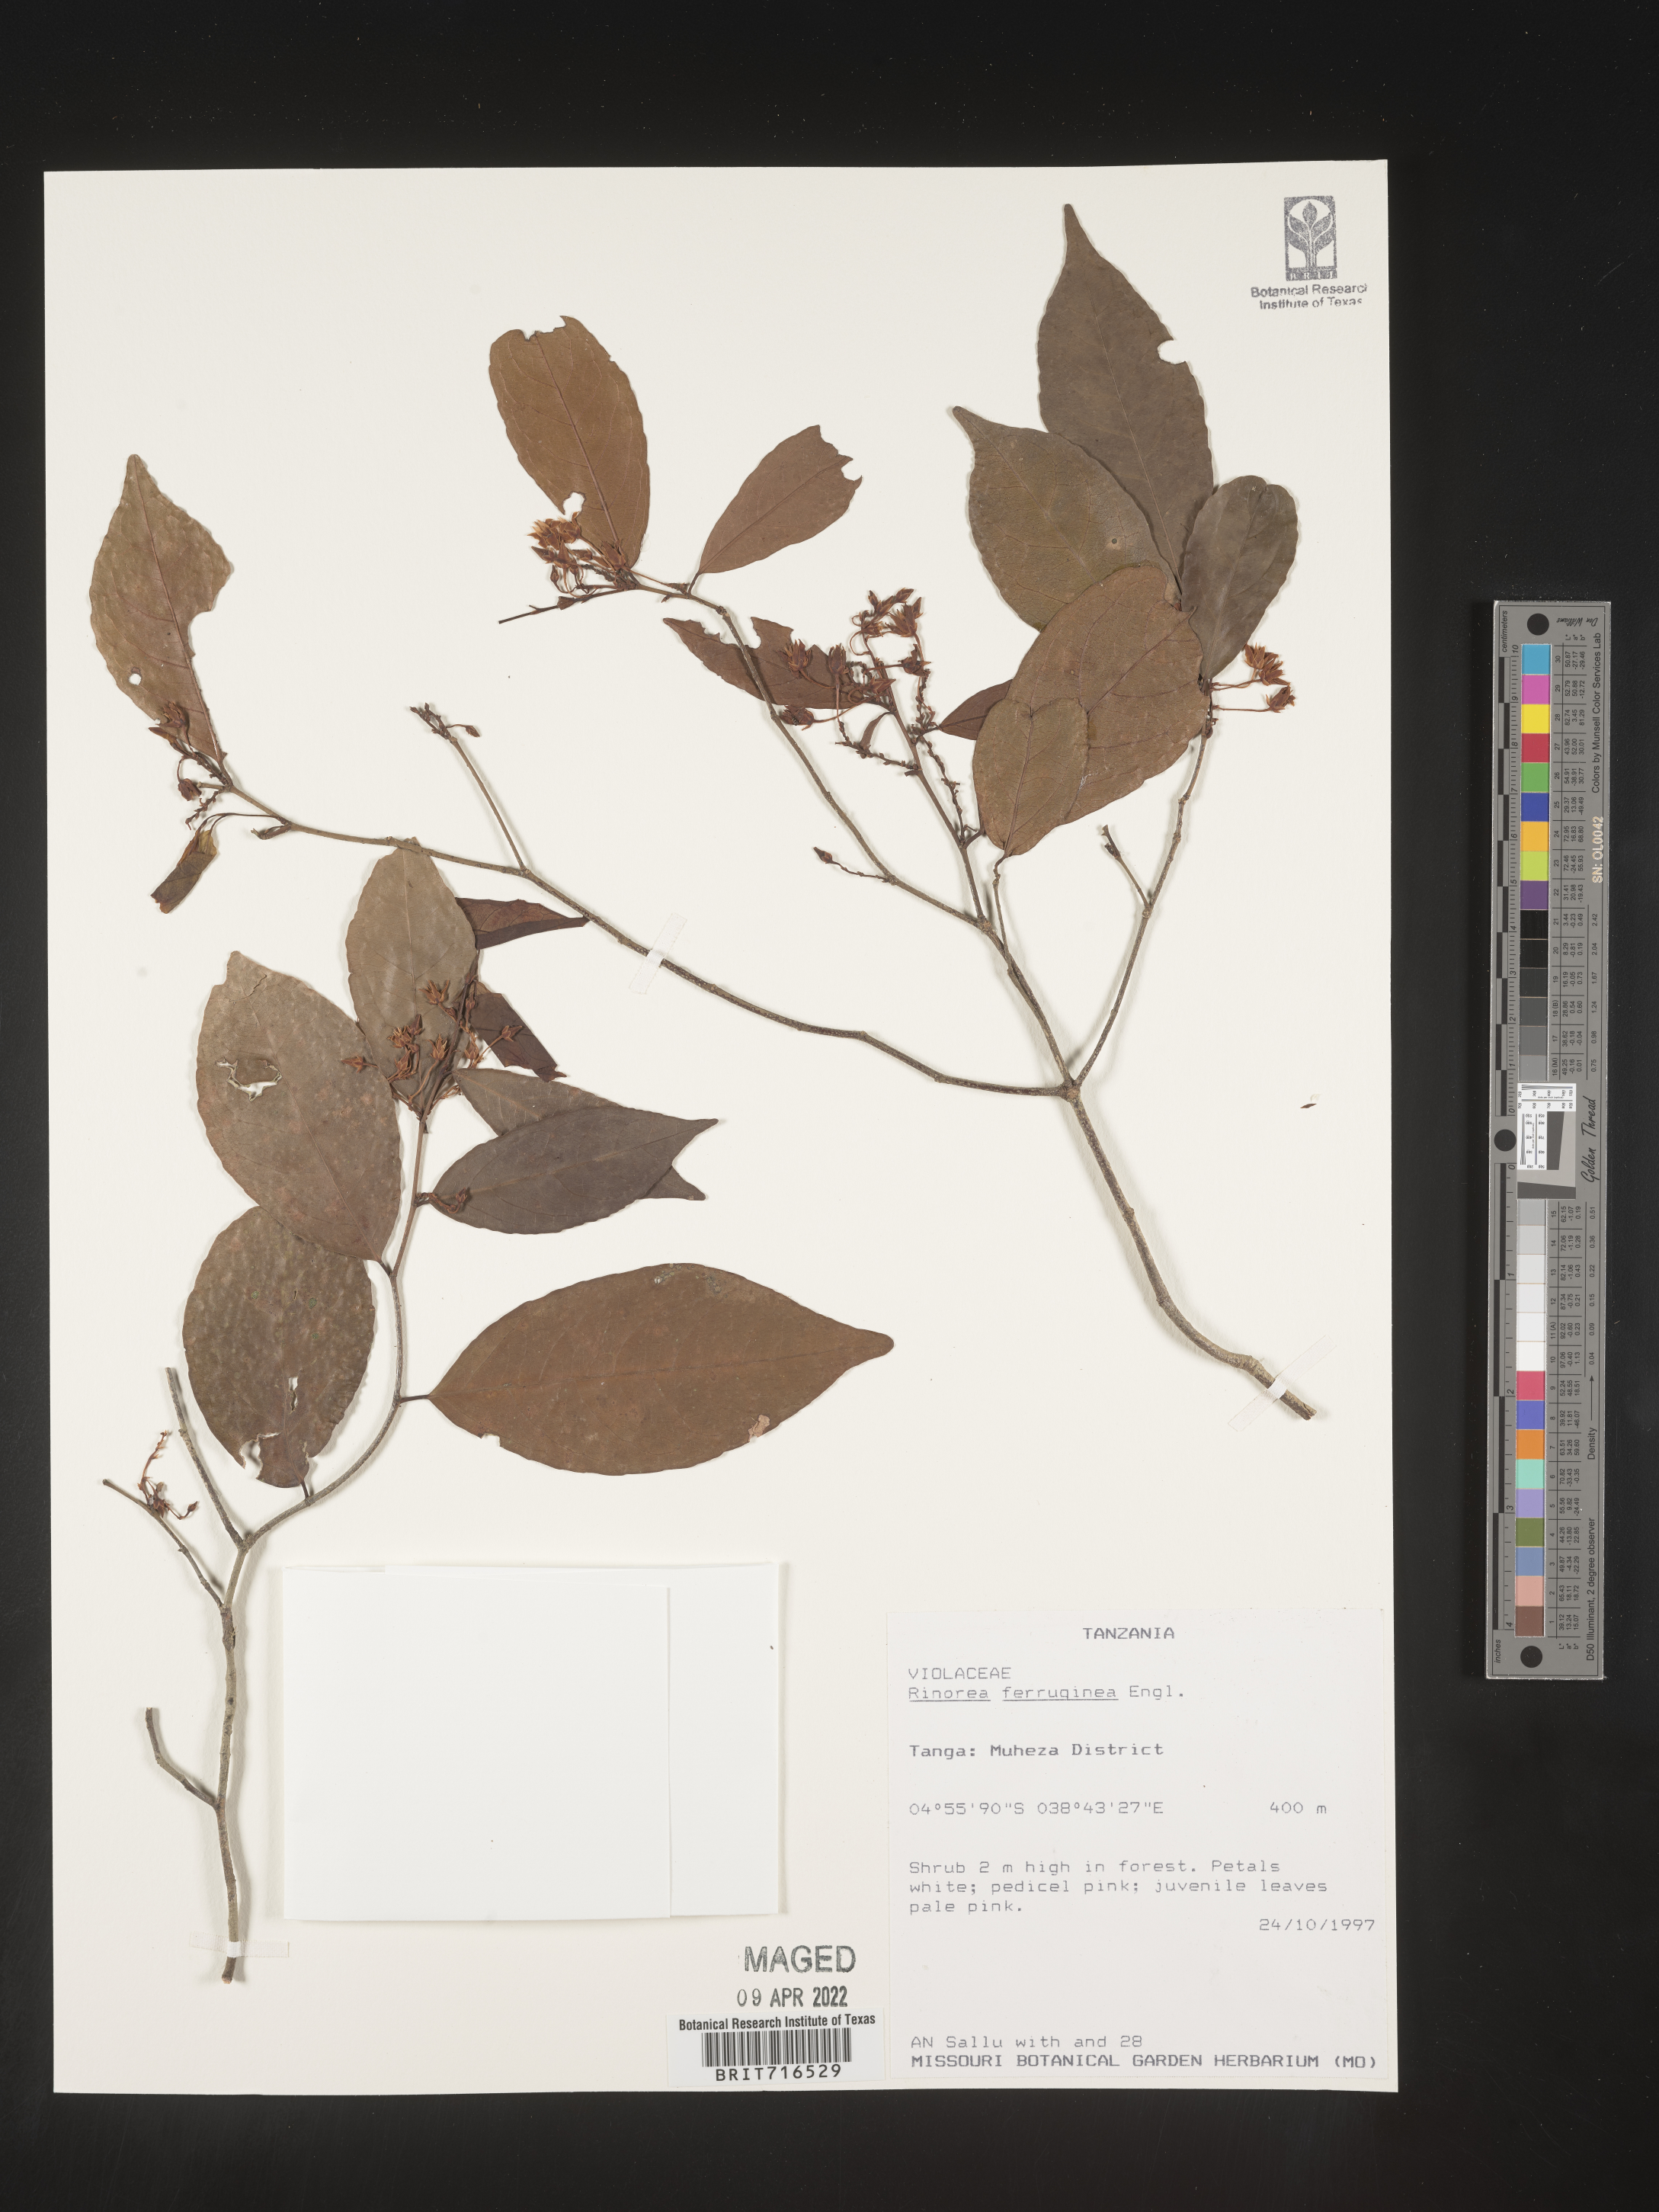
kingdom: Plantae
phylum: Tracheophyta
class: Magnoliopsida
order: Malpighiales
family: Violaceae
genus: Rinorea
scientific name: Rinorea
